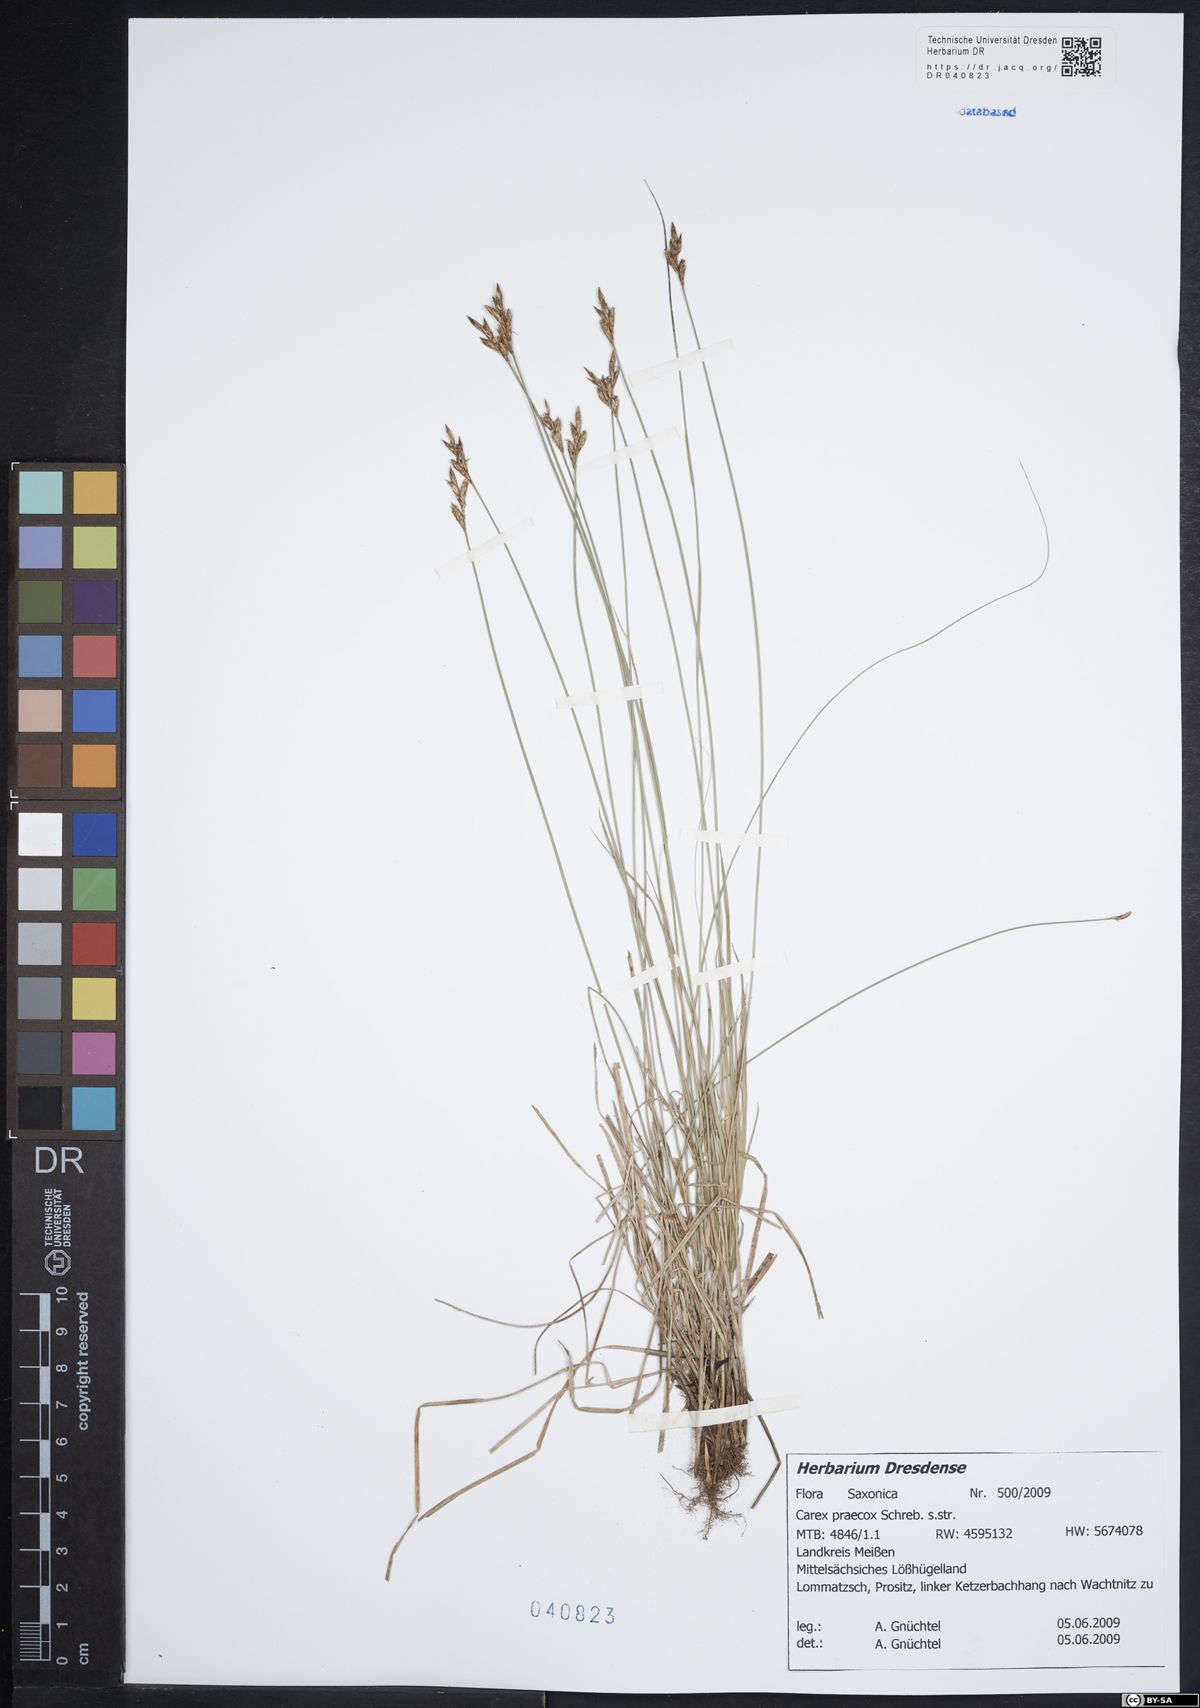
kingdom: Plantae
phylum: Tracheophyta
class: Liliopsida
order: Poales
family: Cyperaceae
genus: Carex
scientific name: Carex praecox
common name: Early sedge
